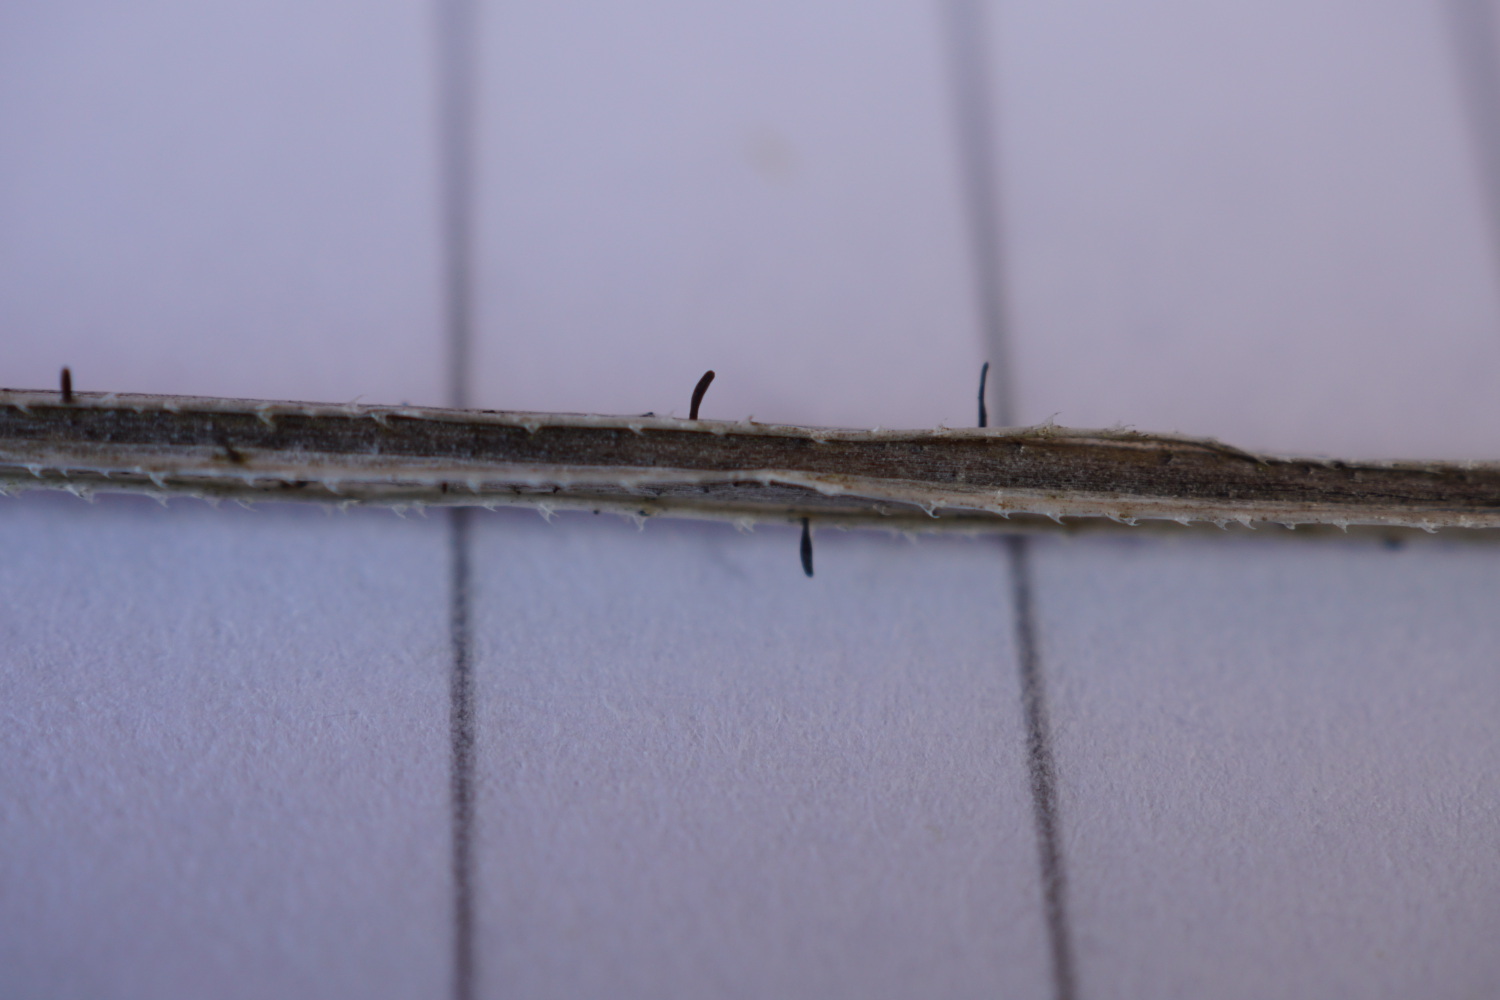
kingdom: Fungi
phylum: Ascomycota
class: Dothideomycetes
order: Acrospermales
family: Acrospermaceae
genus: Acrospermum
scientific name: Acrospermum pallidulum
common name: snerre-stængeltunge
